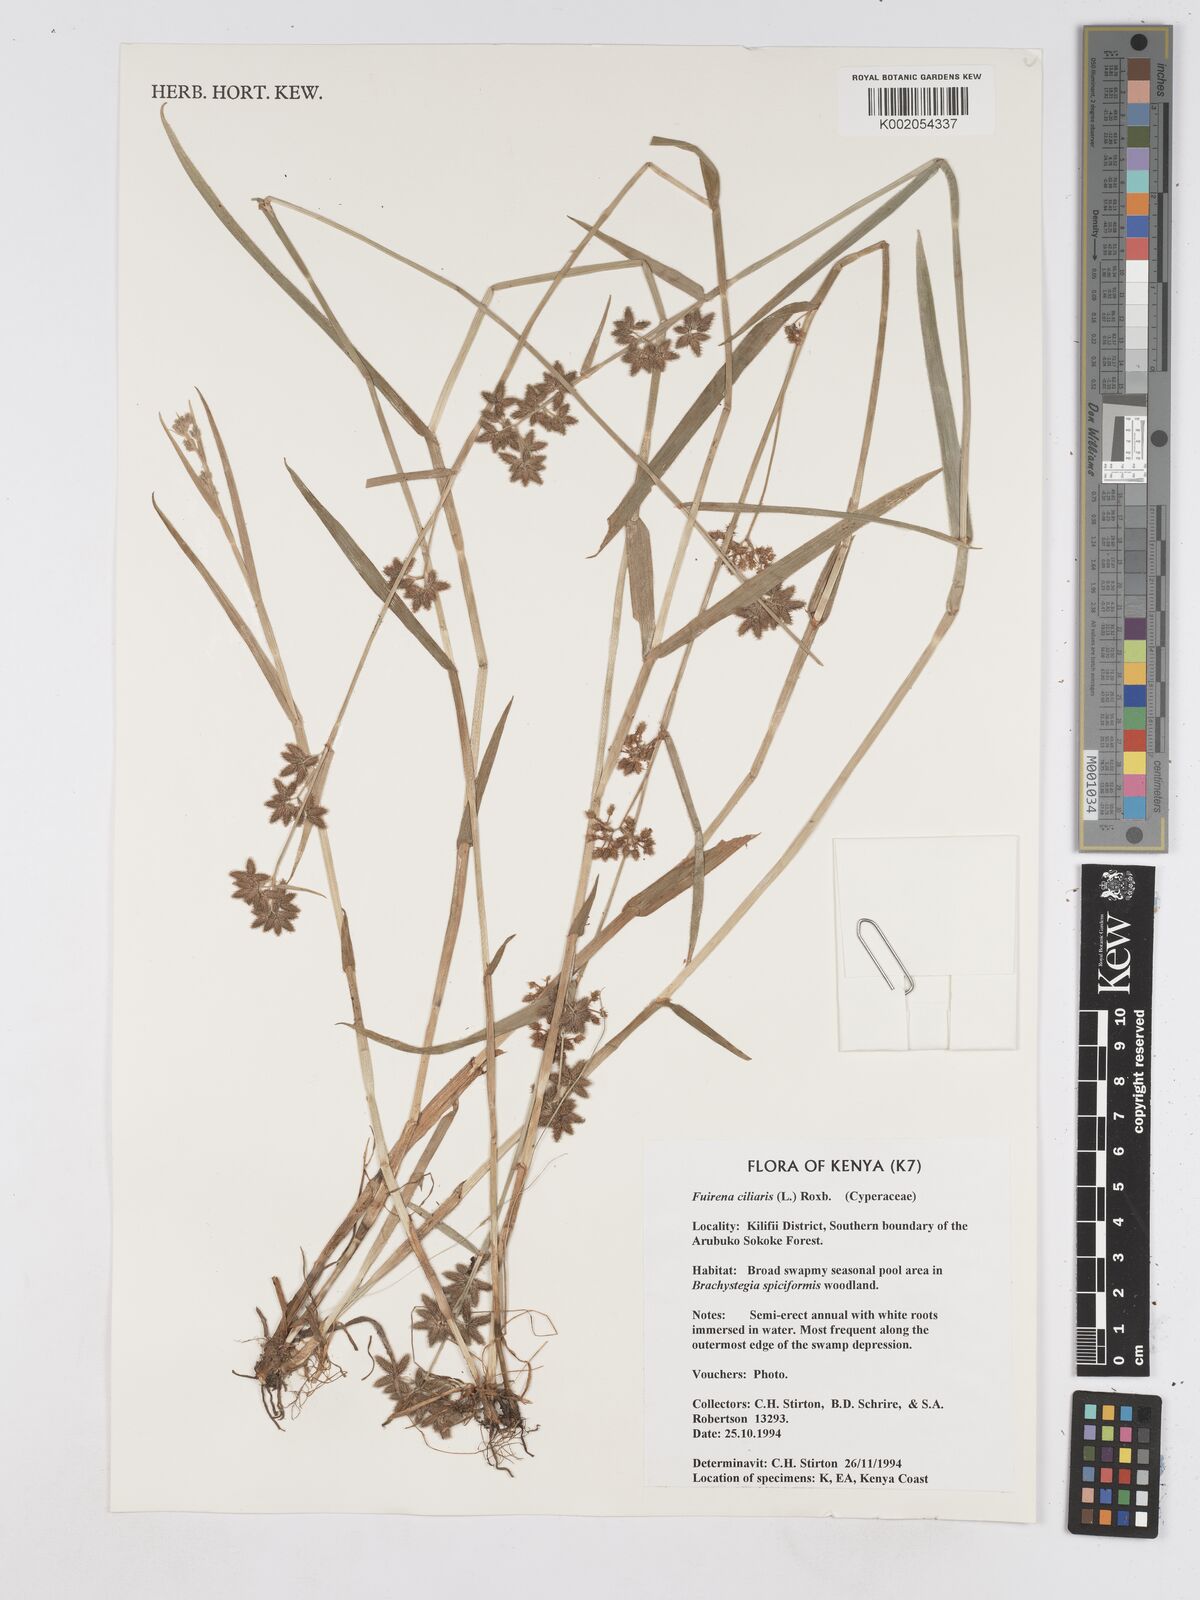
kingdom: Plantae
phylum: Tracheophyta
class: Liliopsida
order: Poales
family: Cyperaceae
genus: Fuirena
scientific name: Fuirena ciliaris
